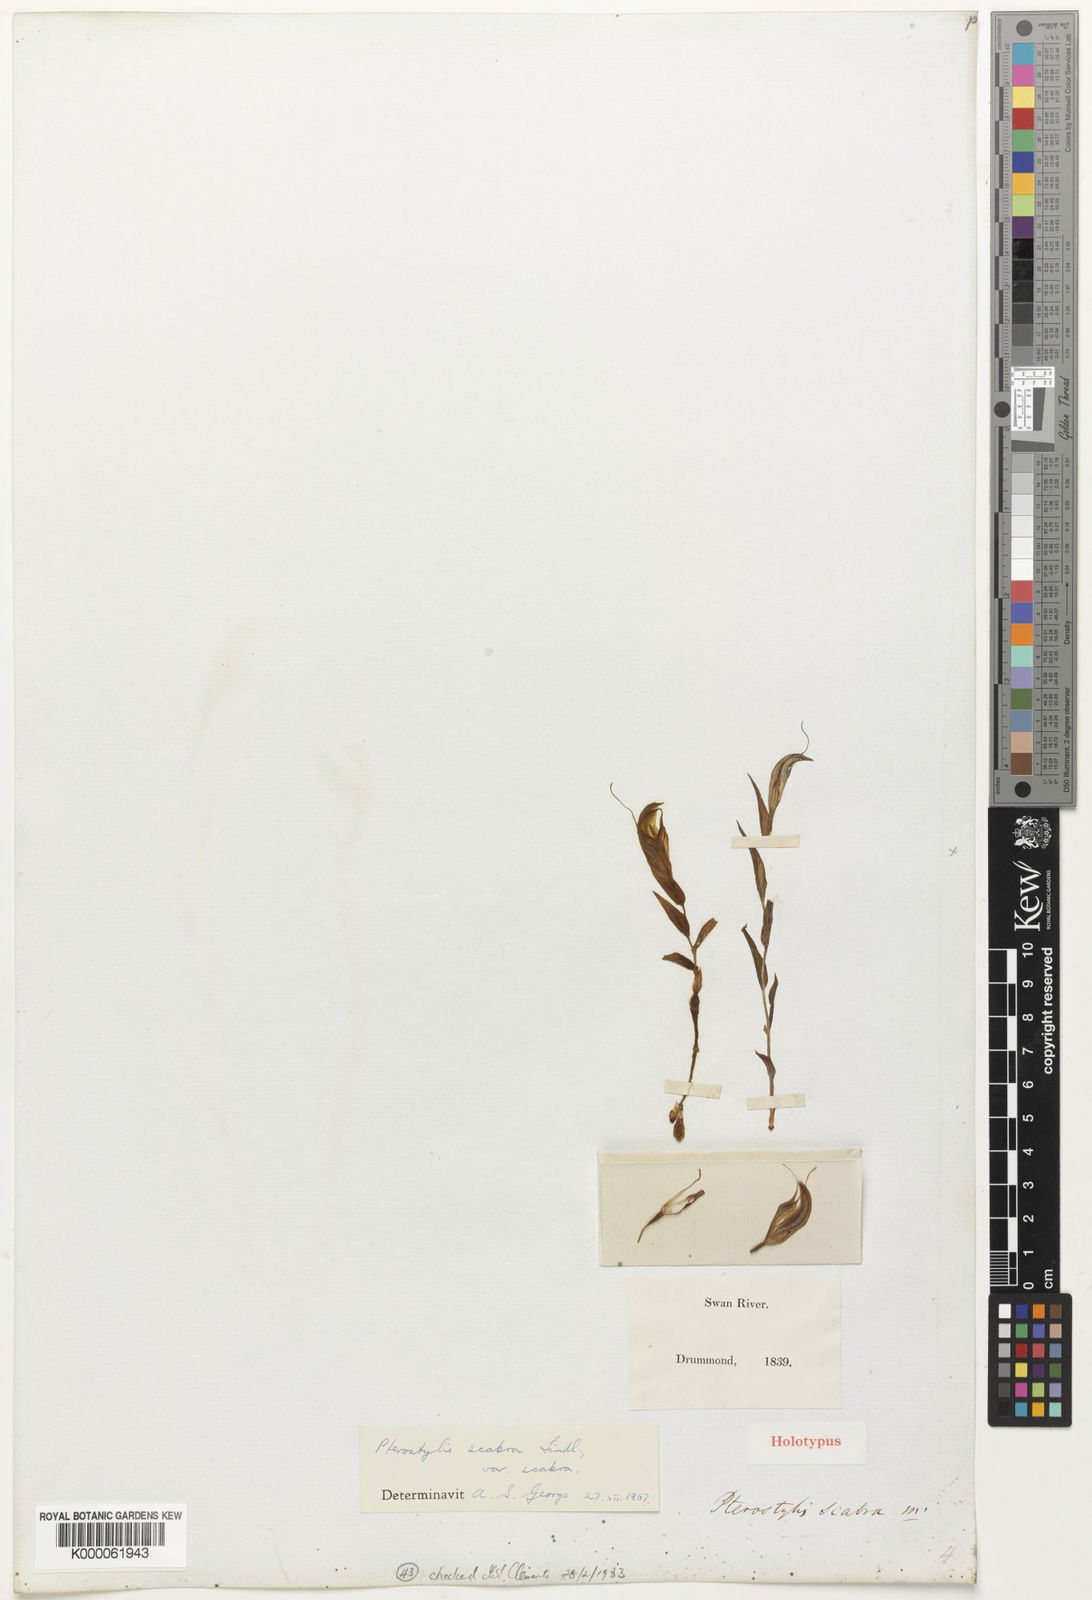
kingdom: Plantae
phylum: Tracheophyta
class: Liliopsida
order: Asparagales
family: Orchidaceae
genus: Pterostylis
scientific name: Pterostylis scabra
